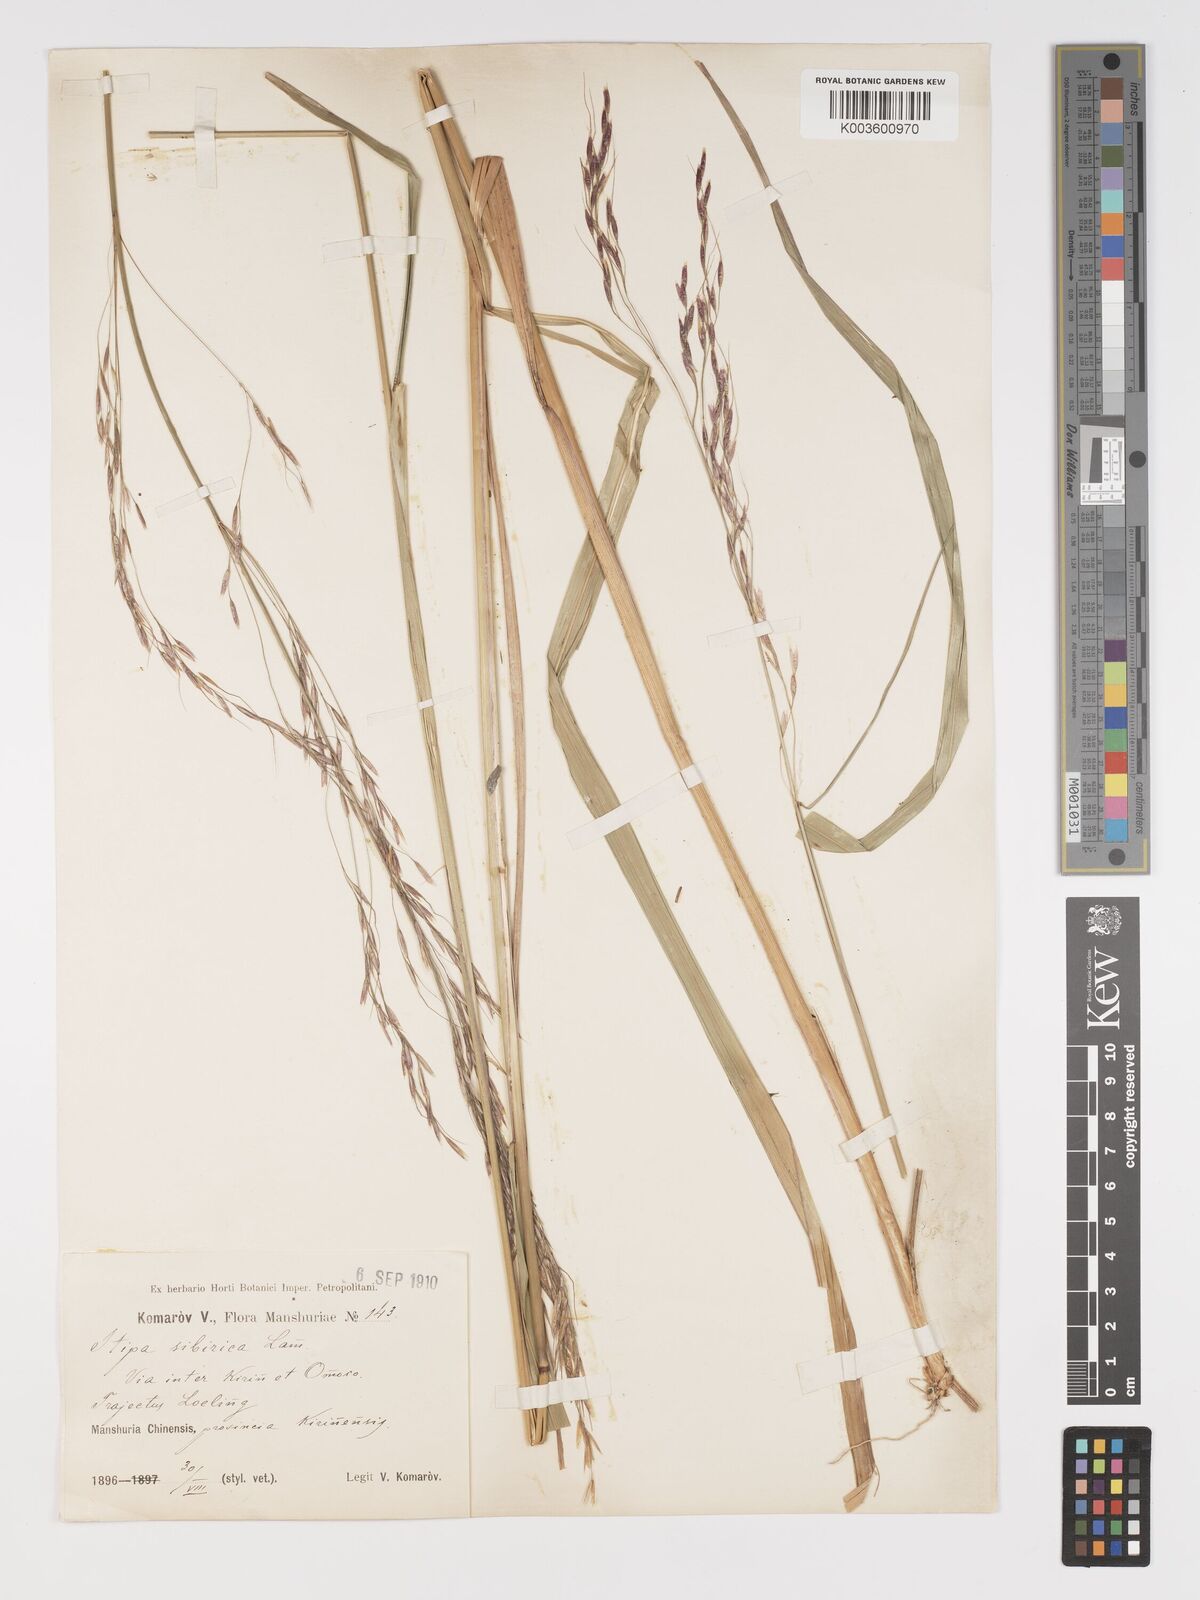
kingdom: Plantae
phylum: Tracheophyta
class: Liliopsida
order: Poales
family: Poaceae
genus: Achnatherum
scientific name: Achnatherum pekinense
